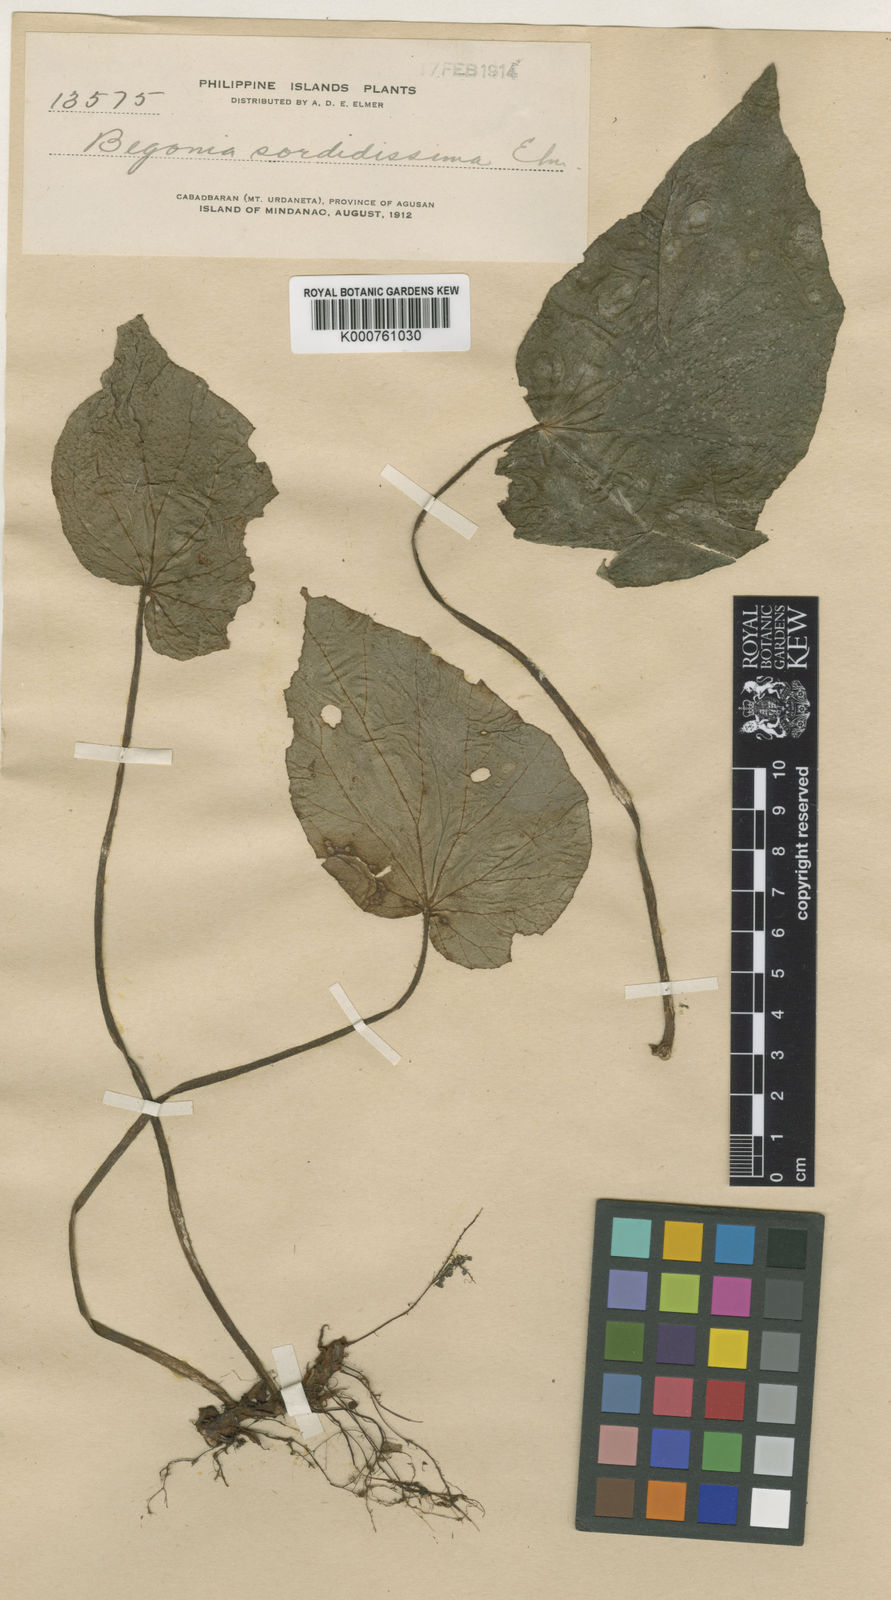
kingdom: Plantae
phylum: Tracheophyta
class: Magnoliopsida
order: Cucurbitales
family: Begoniaceae
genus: Begonia
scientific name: Begonia mindorensis
